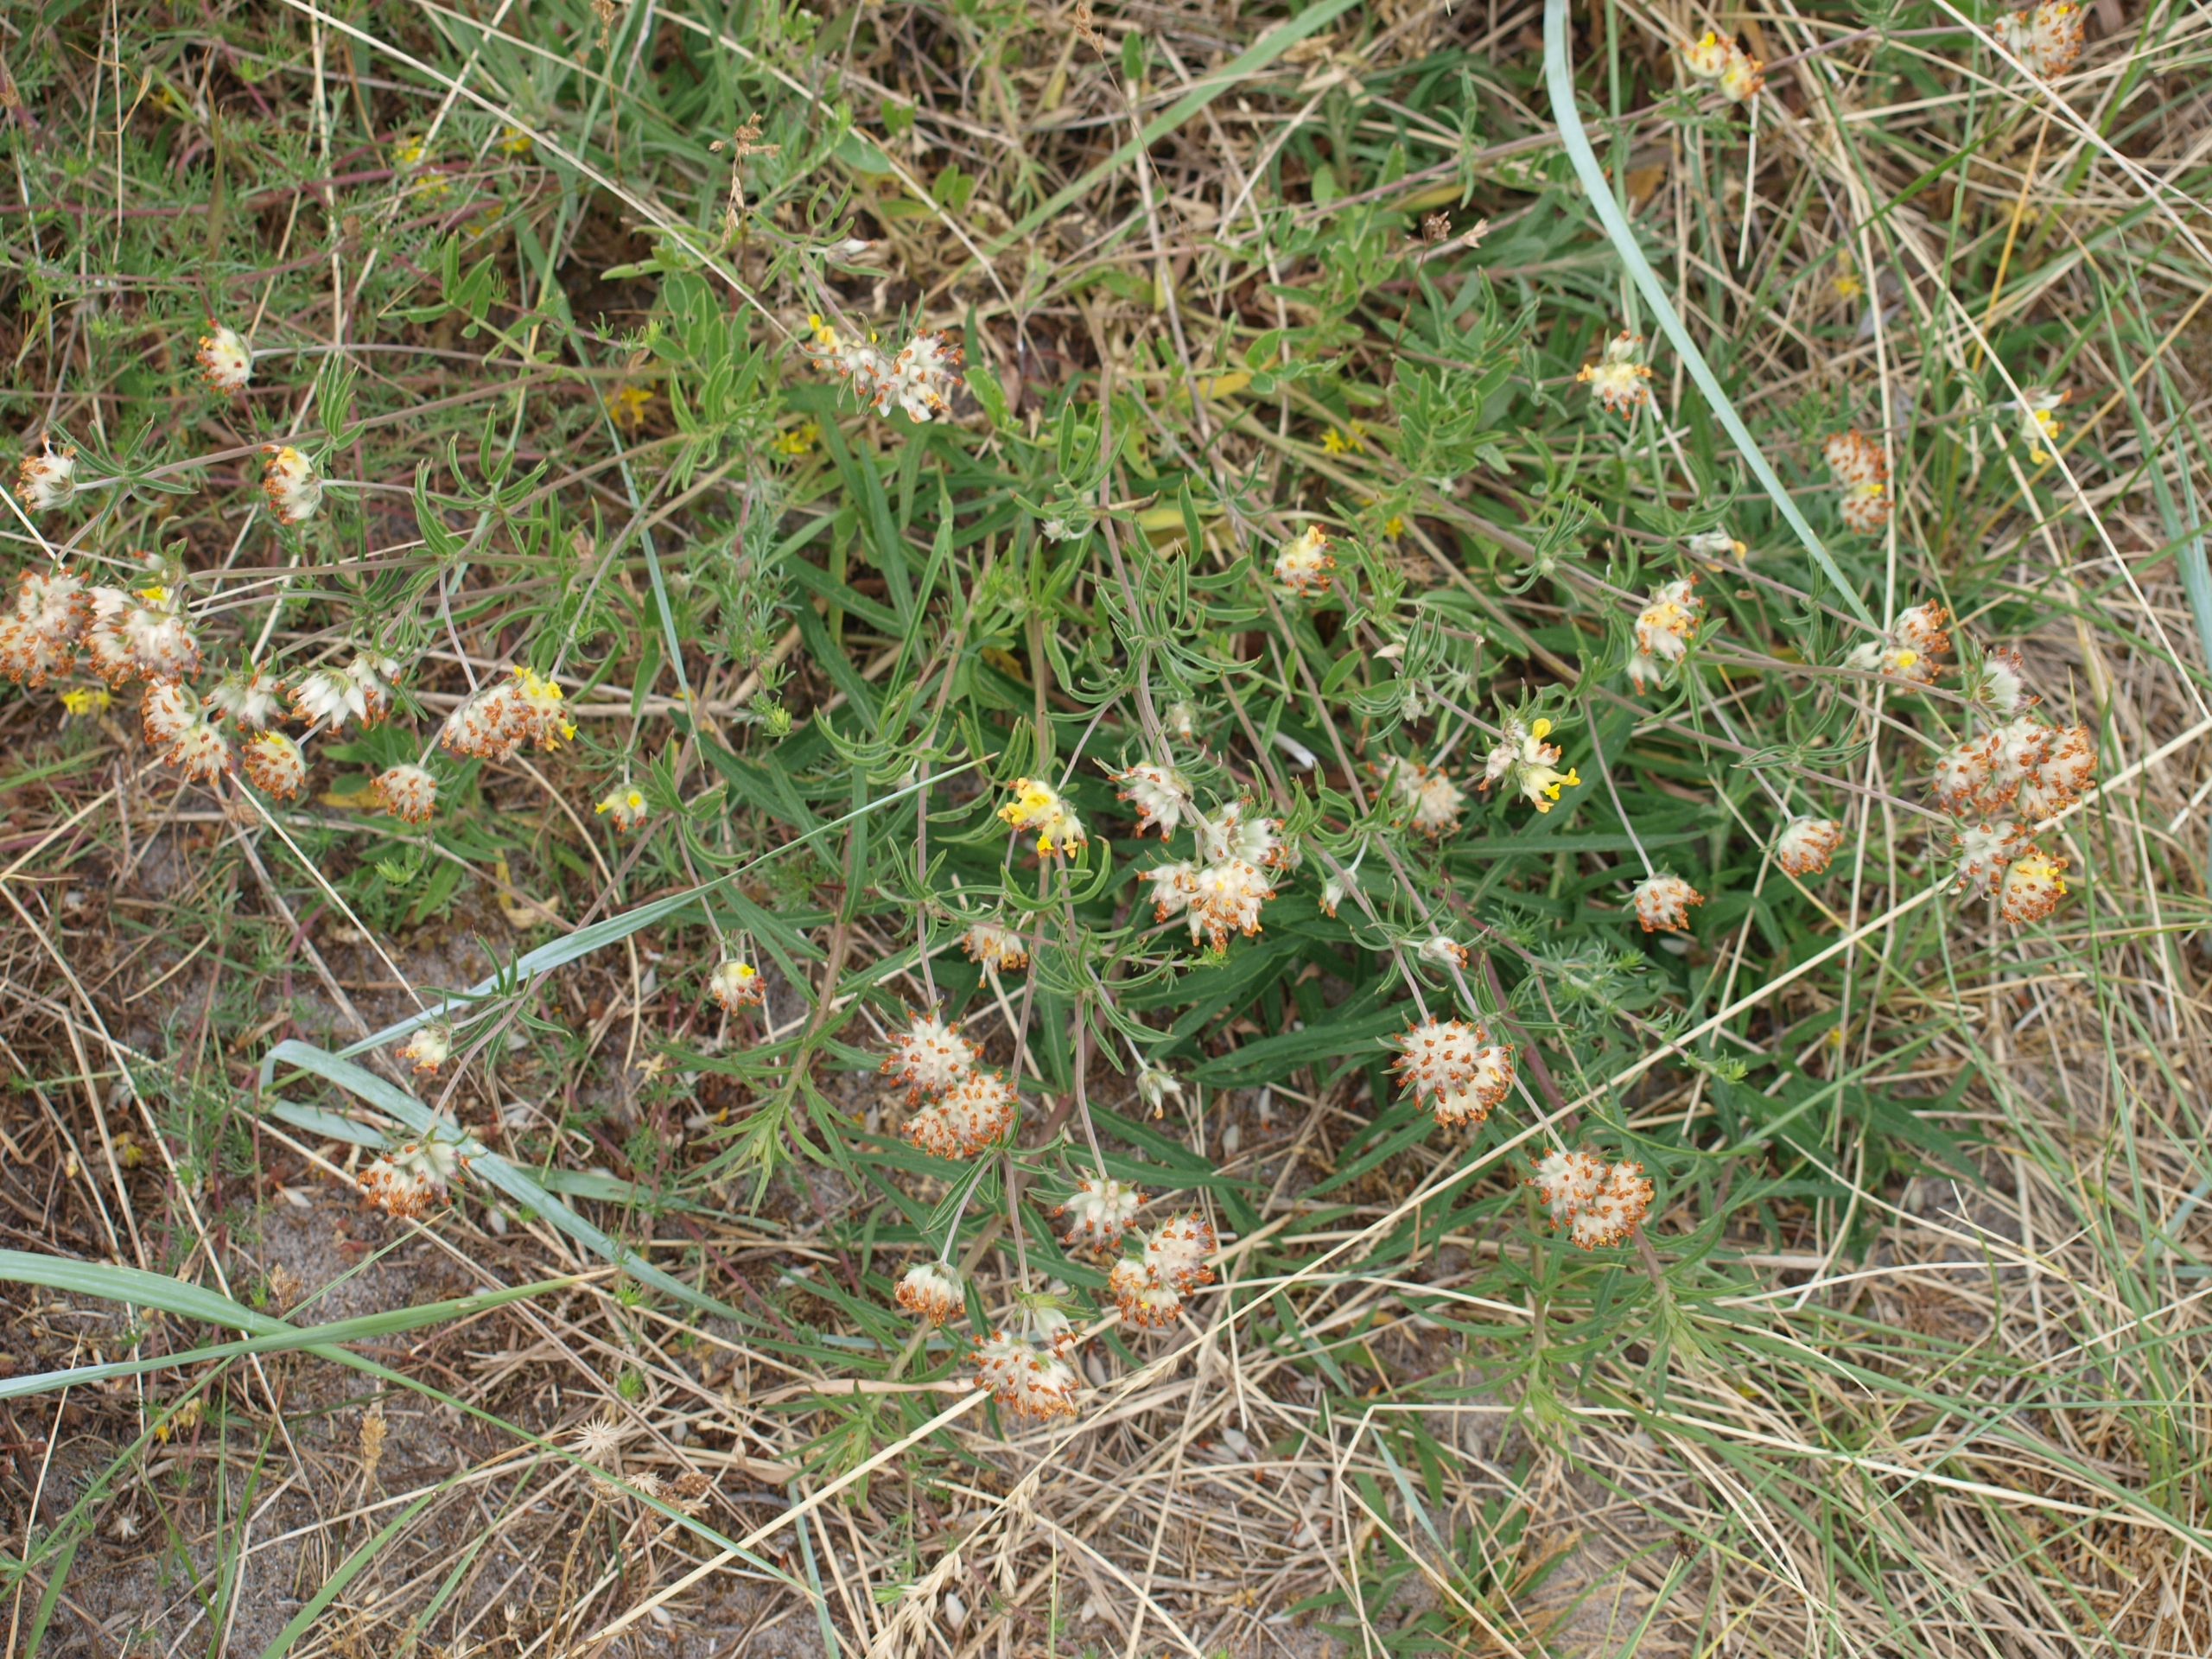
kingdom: Plantae
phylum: Tracheophyta
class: Magnoliopsida
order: Fabales
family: Fabaceae
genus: Anthyllis
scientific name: Anthyllis vulneraria
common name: Rundbælg
